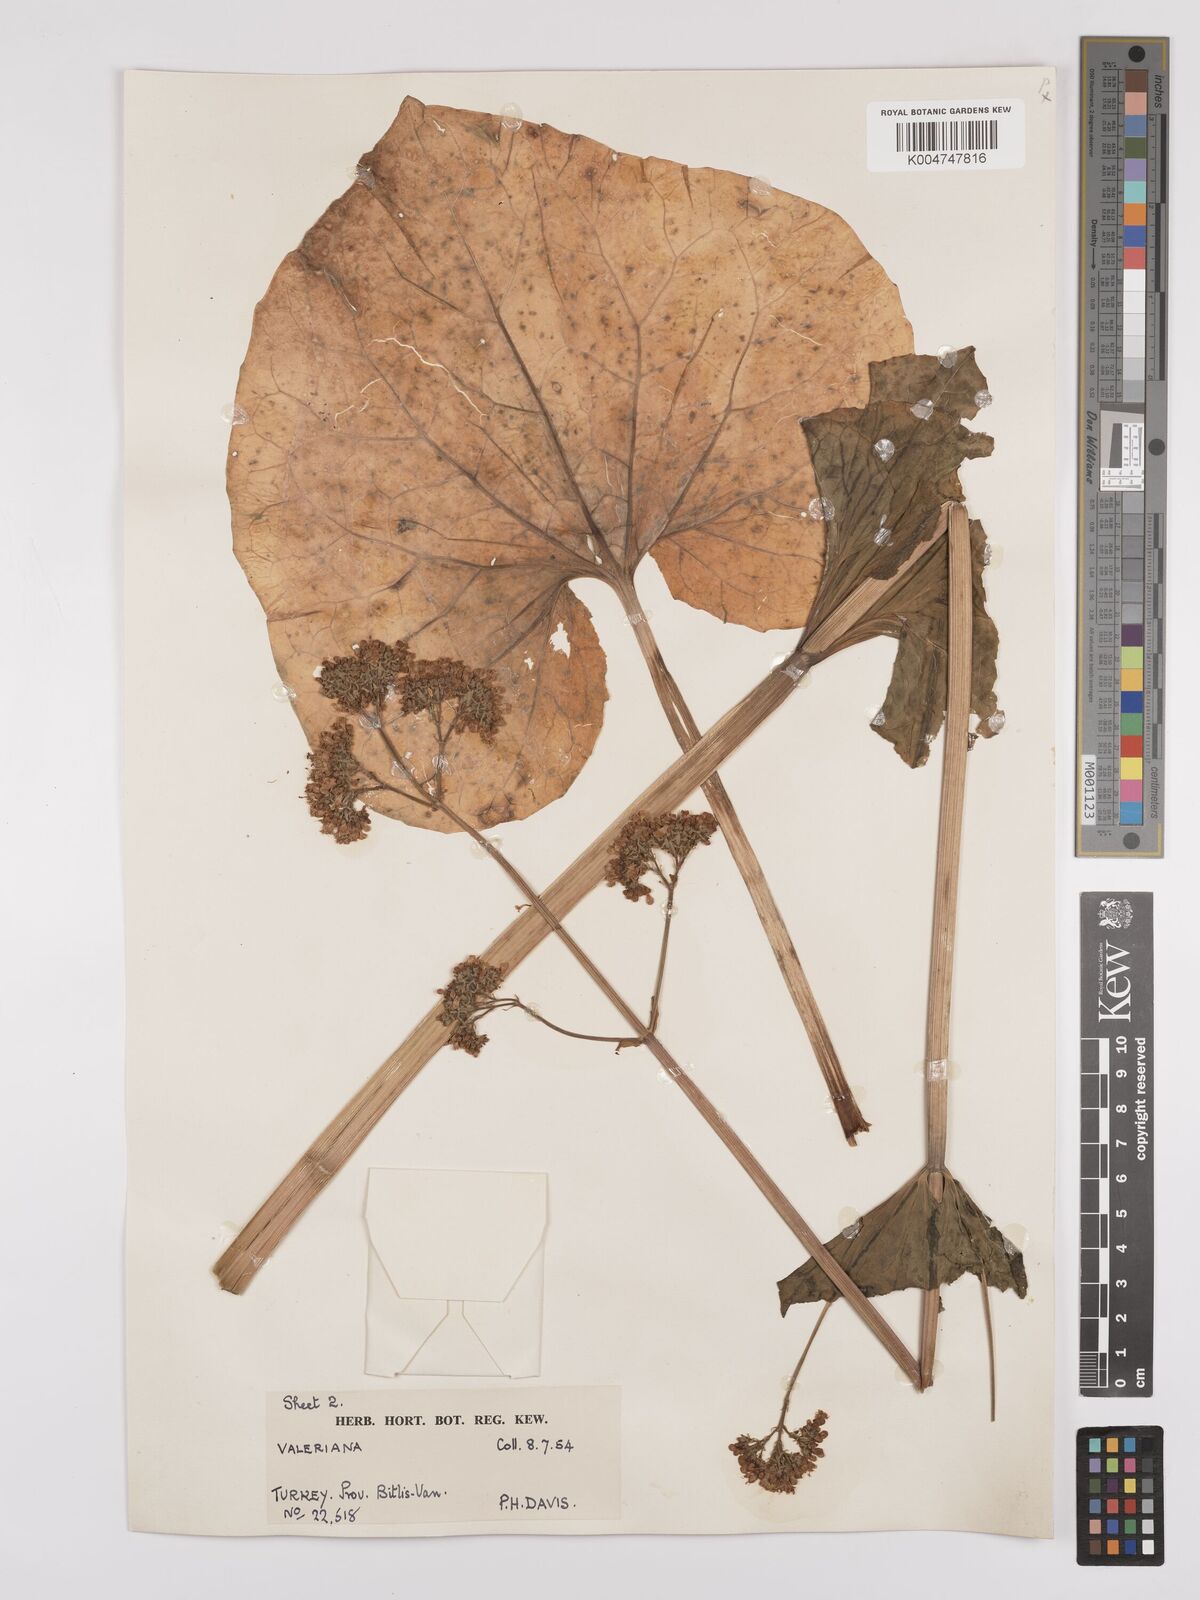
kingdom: Plantae
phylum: Tracheophyta
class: Magnoliopsida
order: Dipsacales
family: Caprifoliaceae
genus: Valeriana
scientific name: Valeriana
